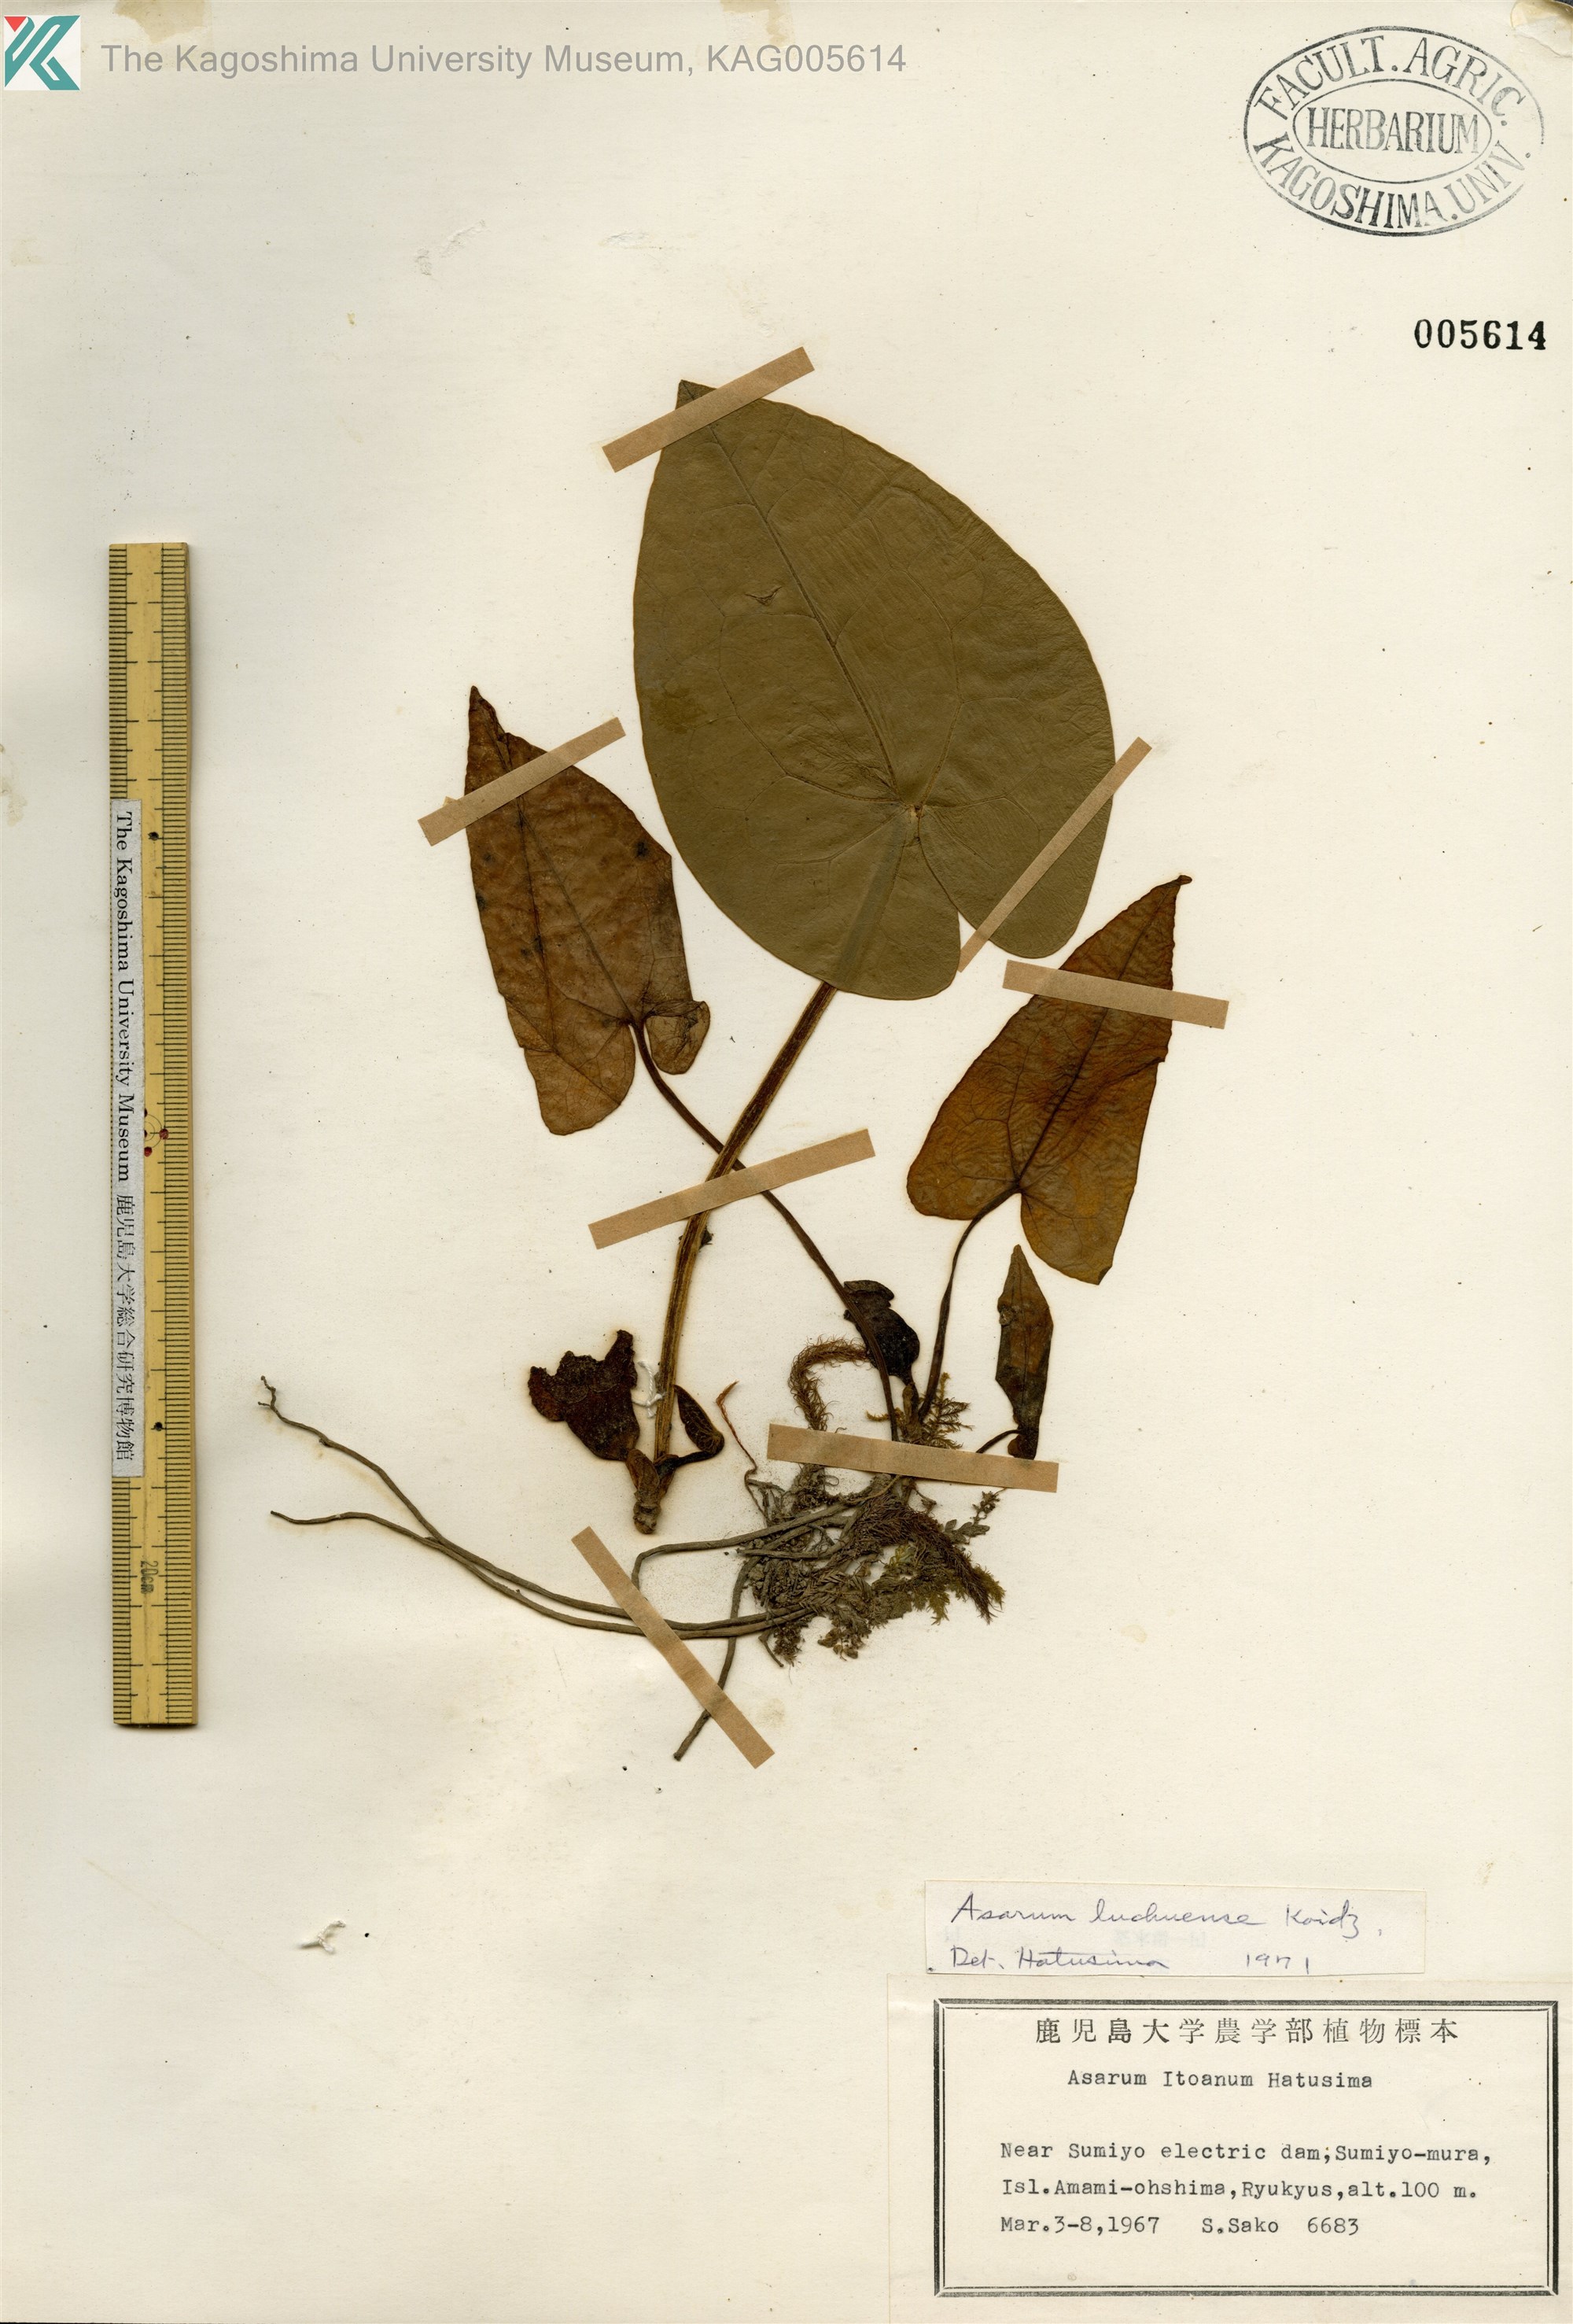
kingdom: Plantae
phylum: Tracheophyta
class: Magnoliopsida
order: Piperales
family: Aristolochiaceae
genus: Asarum
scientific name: Asarum lutchuense
